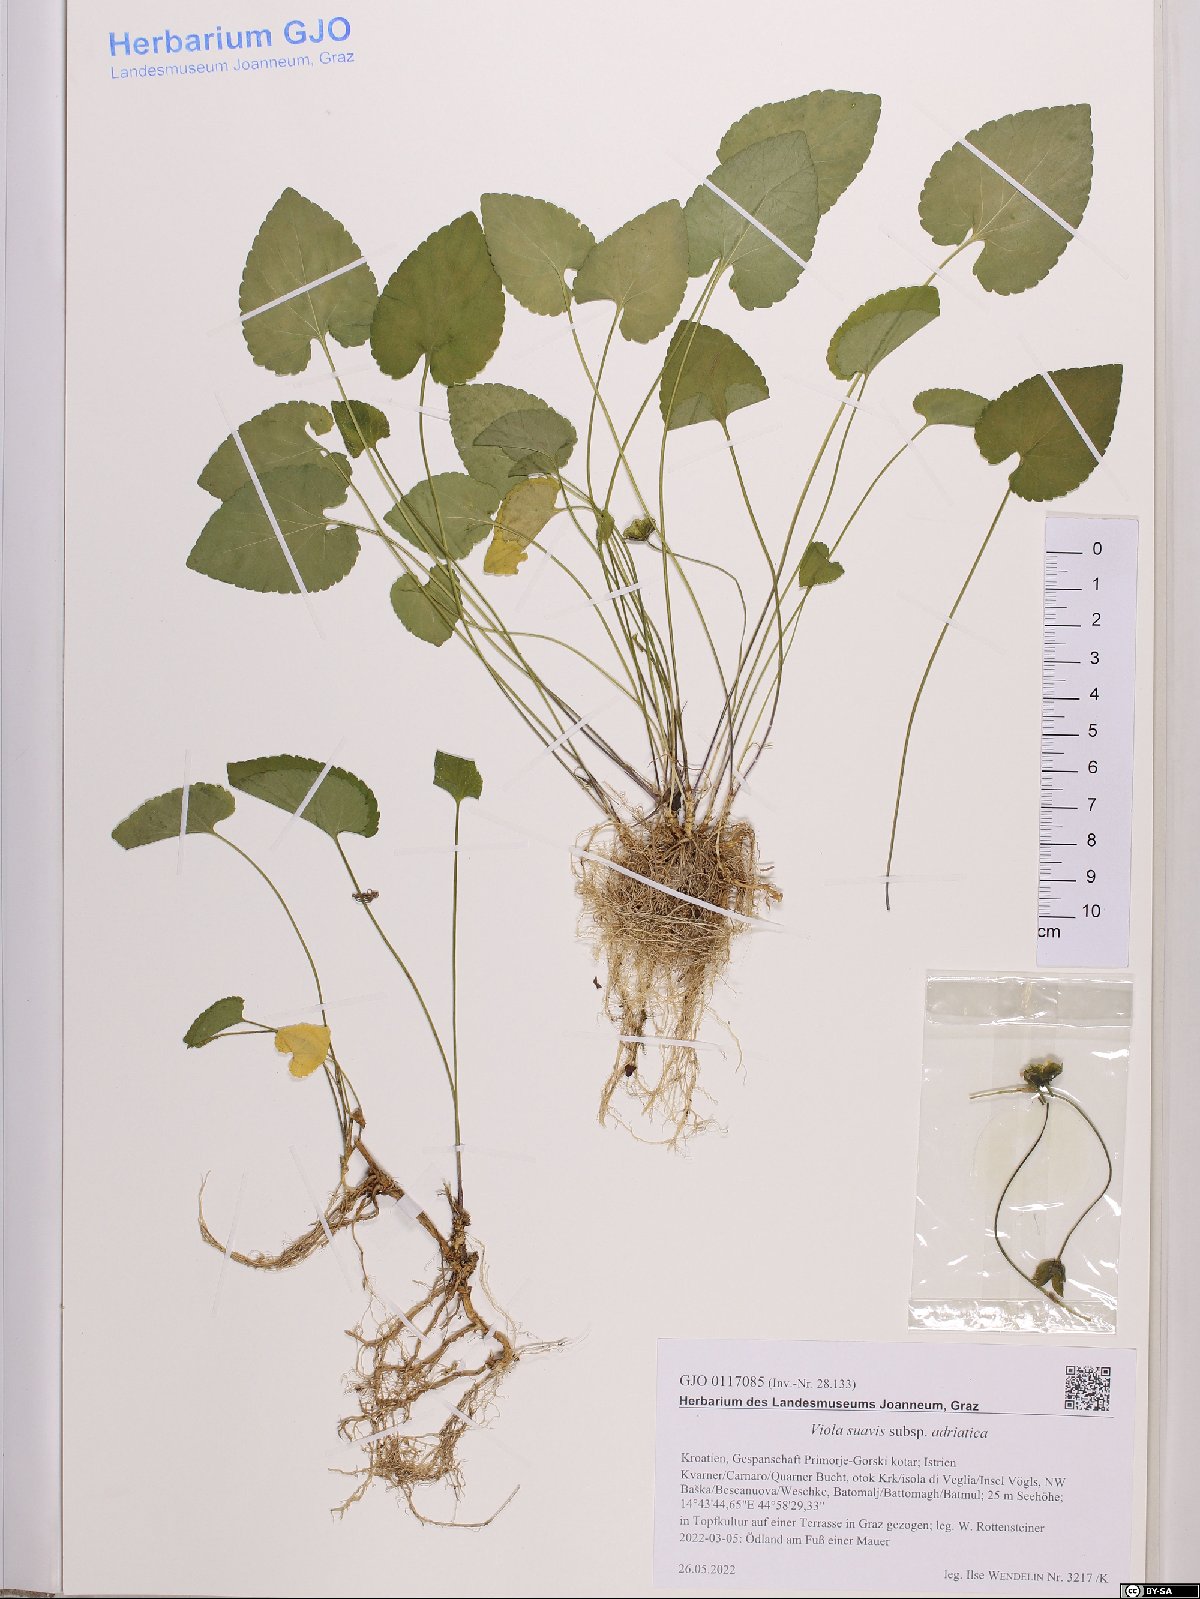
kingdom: Plantae
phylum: Tracheophyta
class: Magnoliopsida
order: Malpighiales
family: Violaceae
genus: Viola
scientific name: Viola suavis
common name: Russian violet
